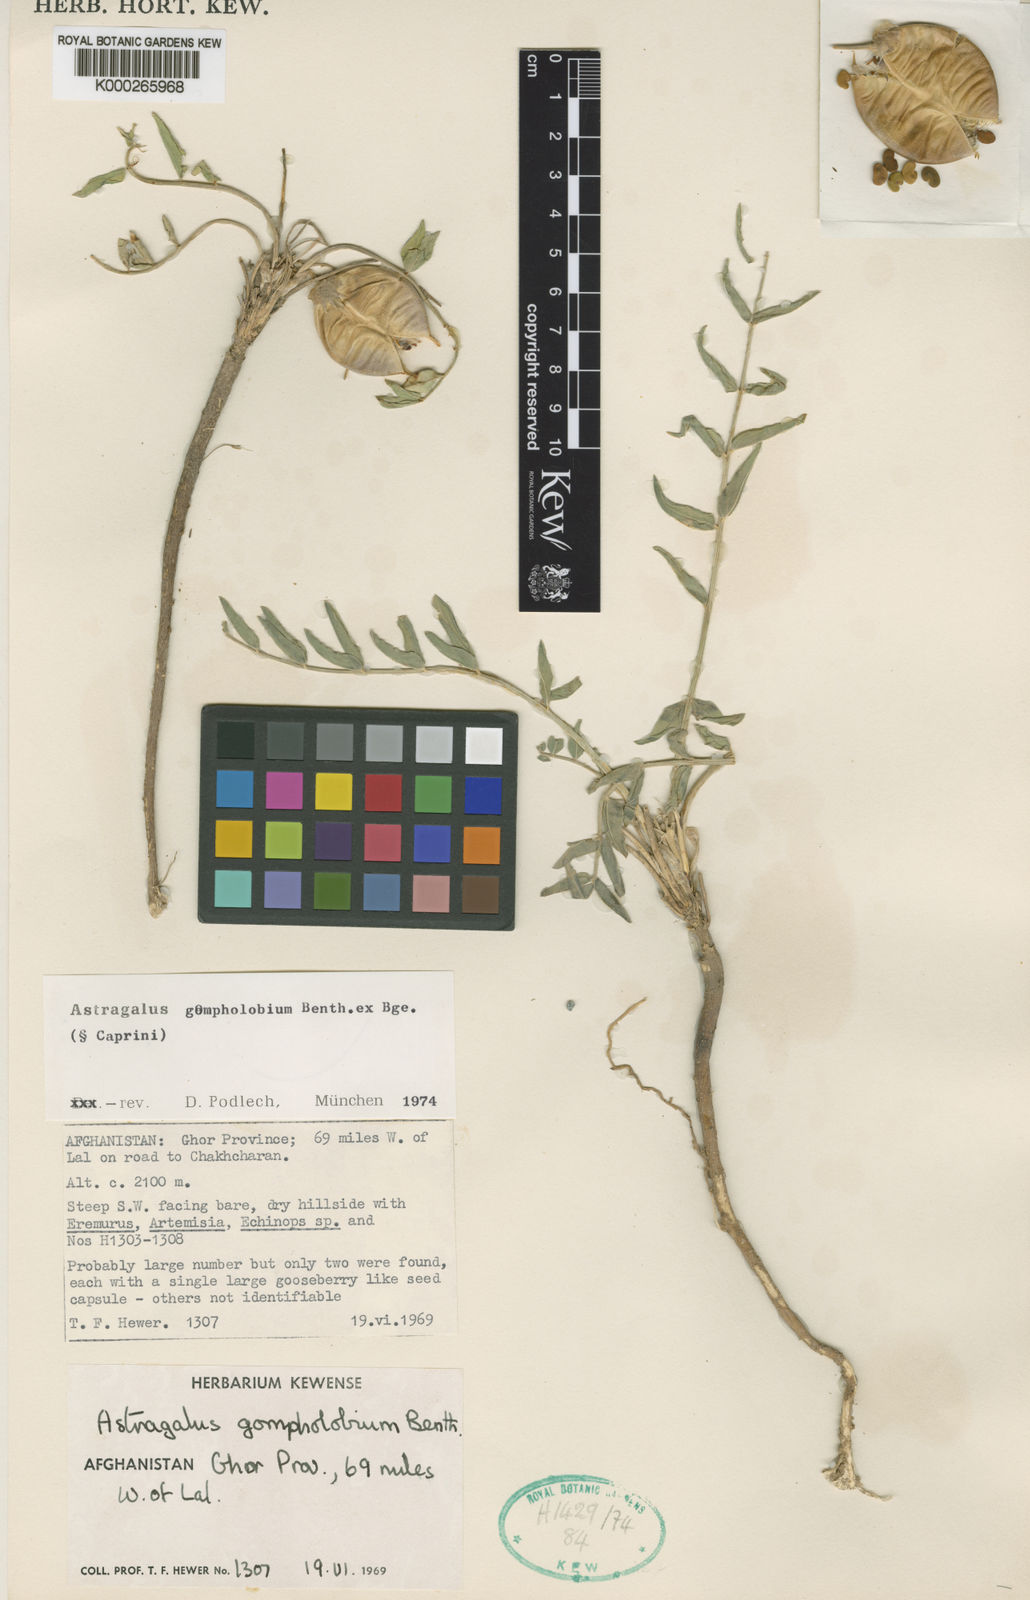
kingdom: Plantae
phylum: Tracheophyta
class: Magnoliopsida
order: Fabales
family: Fabaceae
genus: Astragalus
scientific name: Astragalus gompholobium
